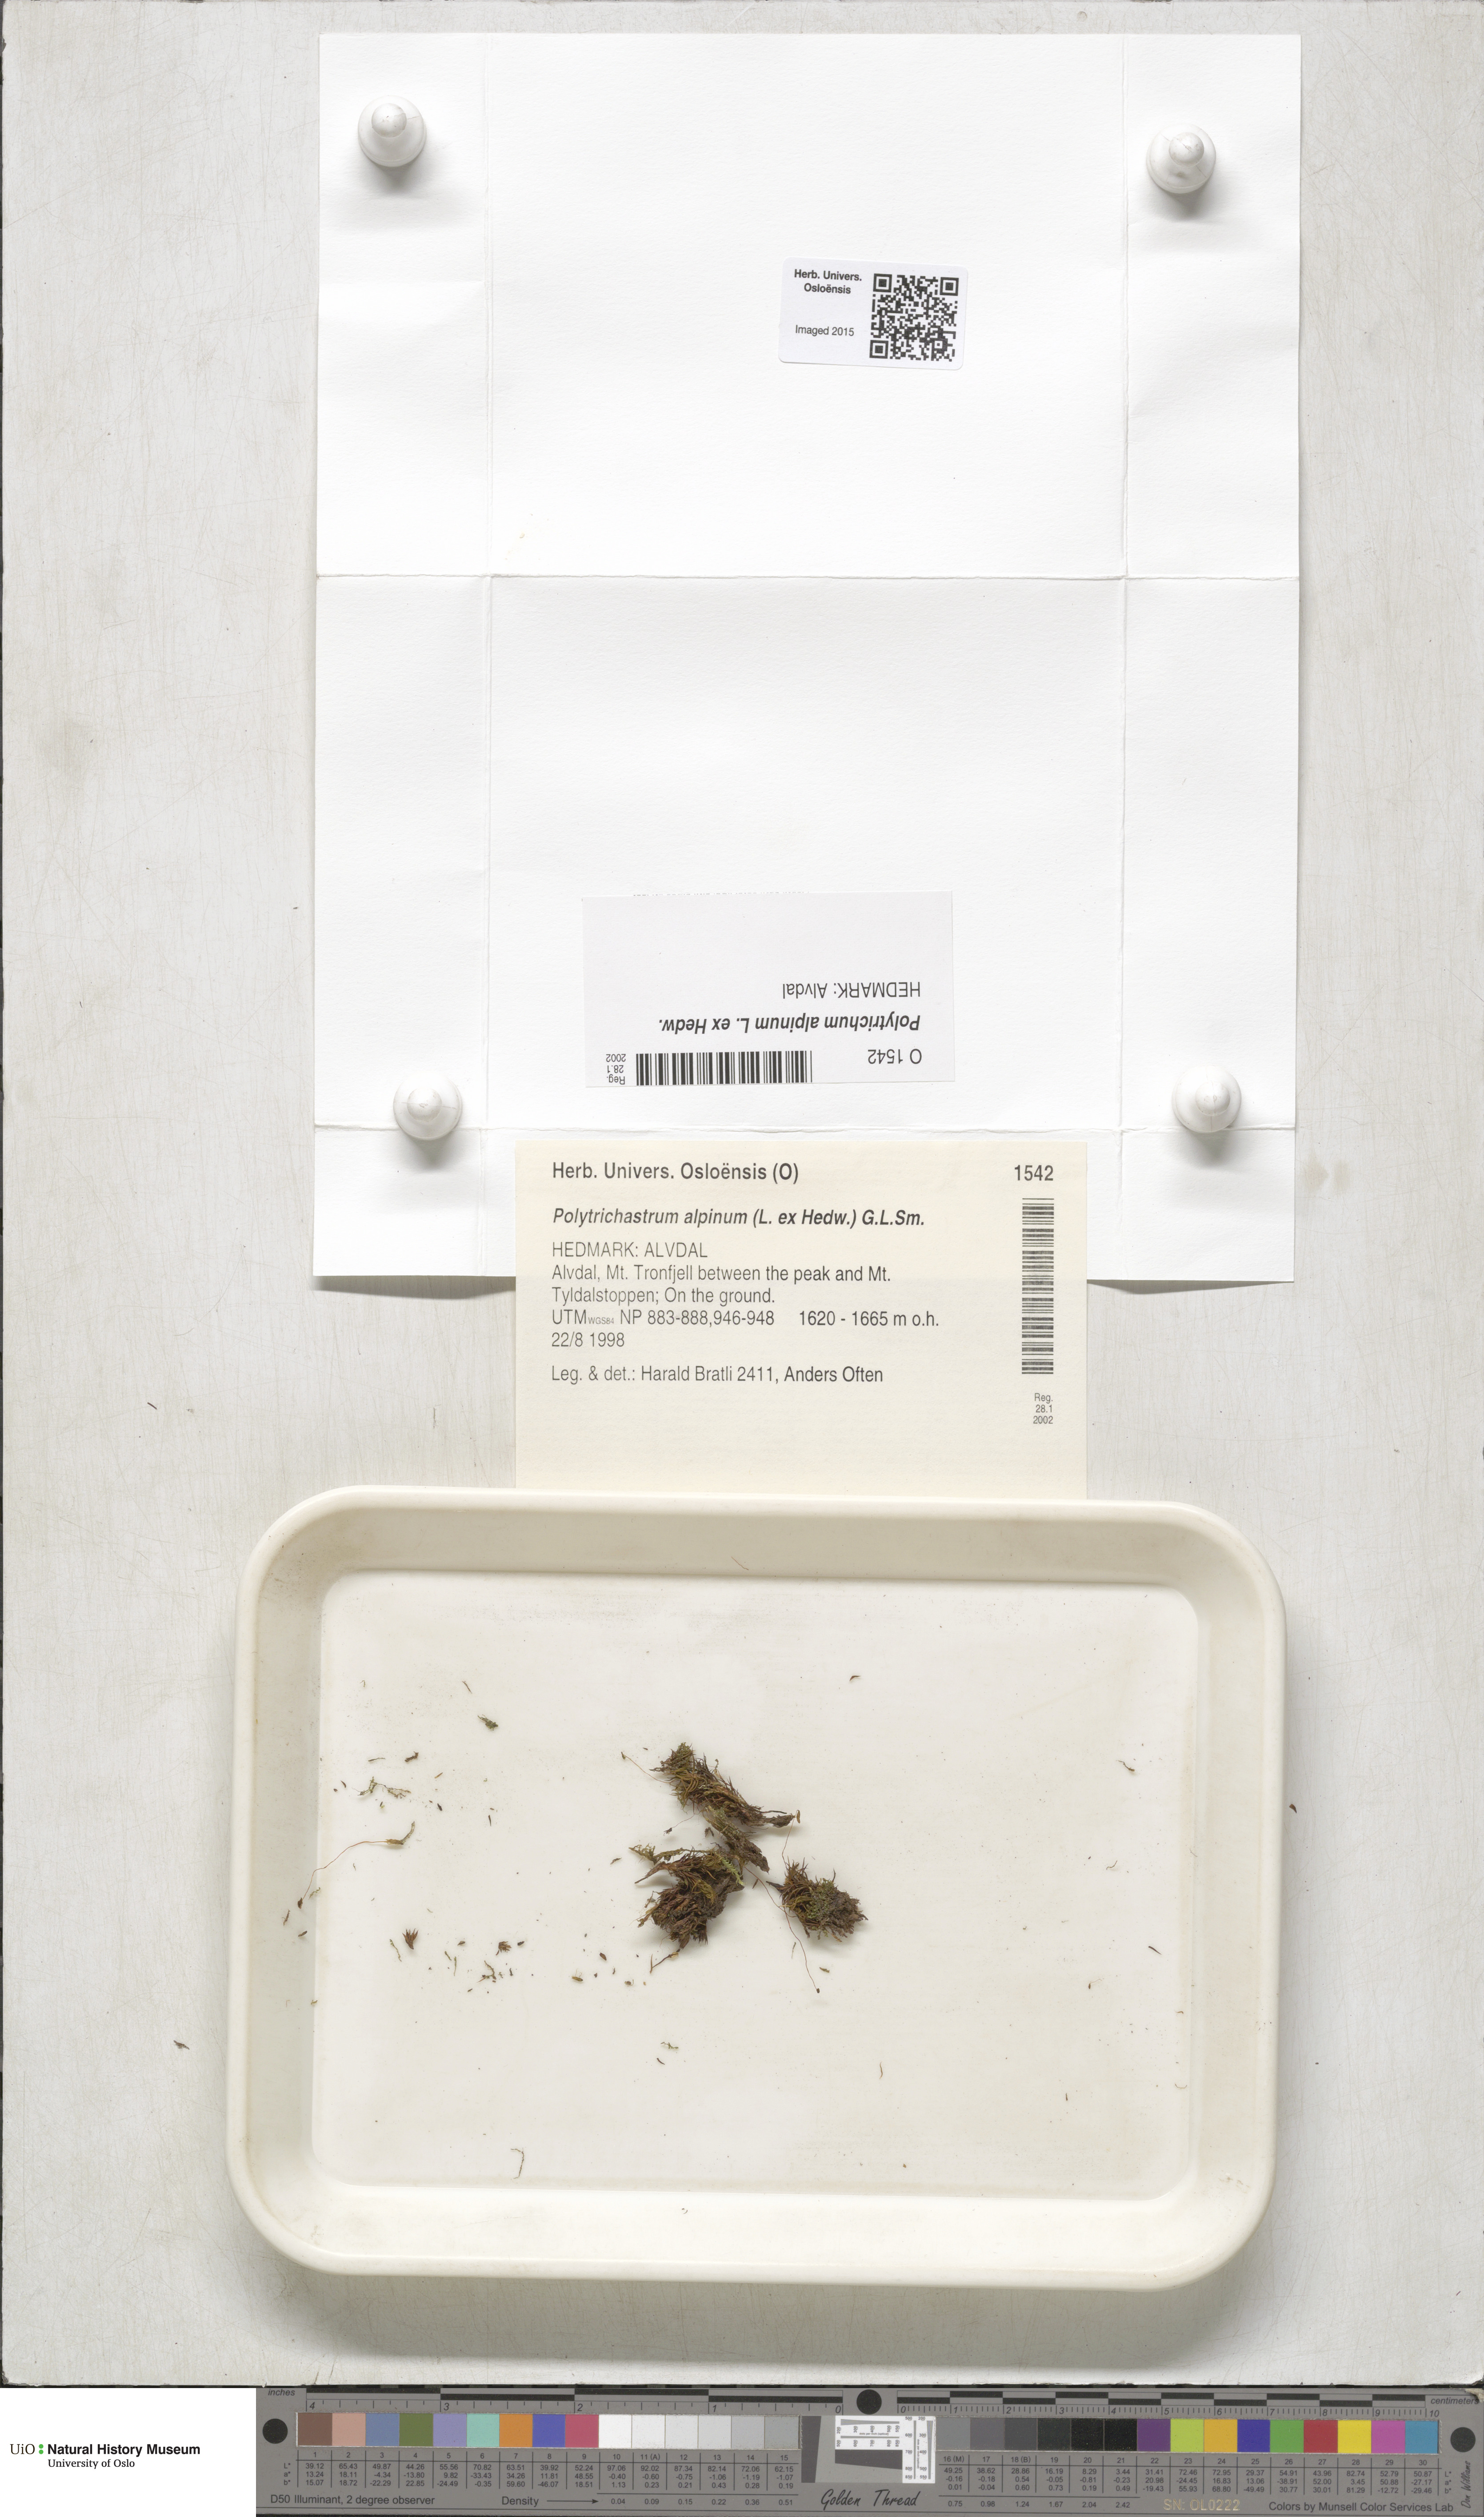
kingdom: Plantae
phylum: Bryophyta
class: Polytrichopsida
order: Polytrichales
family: Polytrichaceae
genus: Polytrichastrum
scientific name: Polytrichastrum alpinum
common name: Alpine haircap
